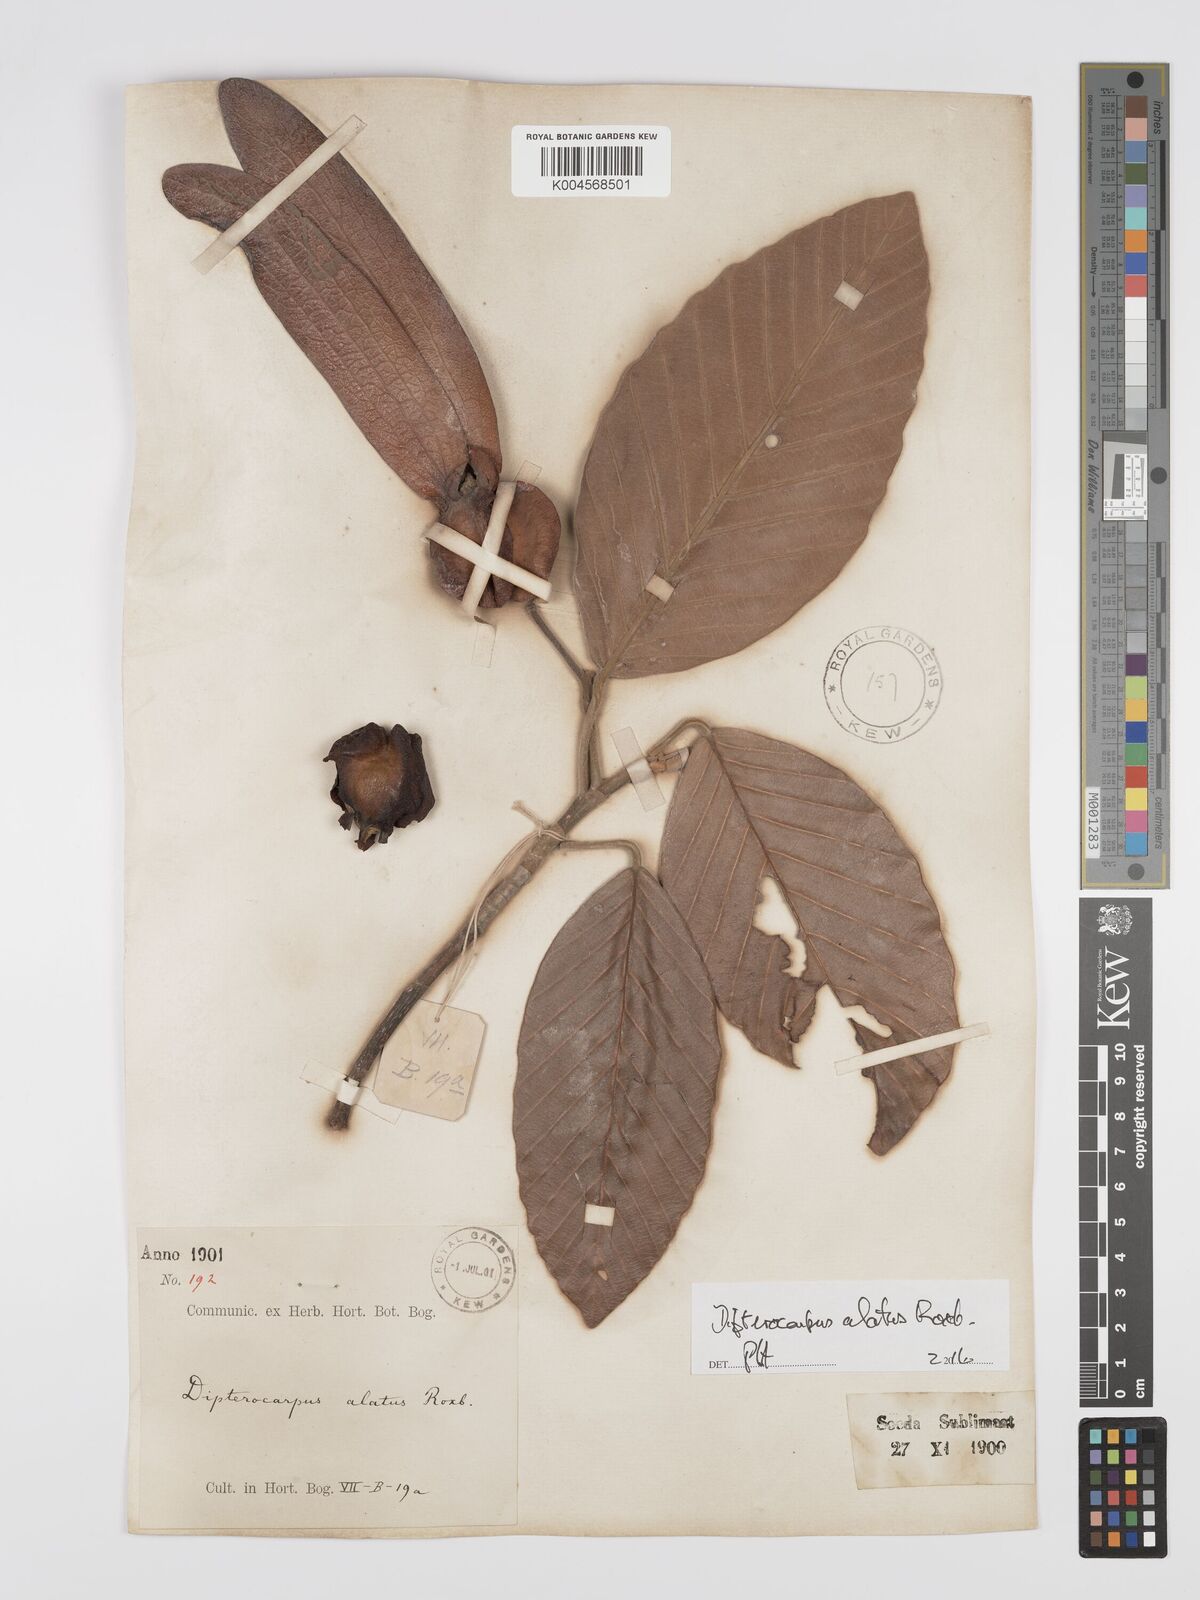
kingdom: Plantae
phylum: Tracheophyta
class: Magnoliopsida
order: Malvales
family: Dipterocarpaceae
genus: Dipterocarpus
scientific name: Dipterocarpus
